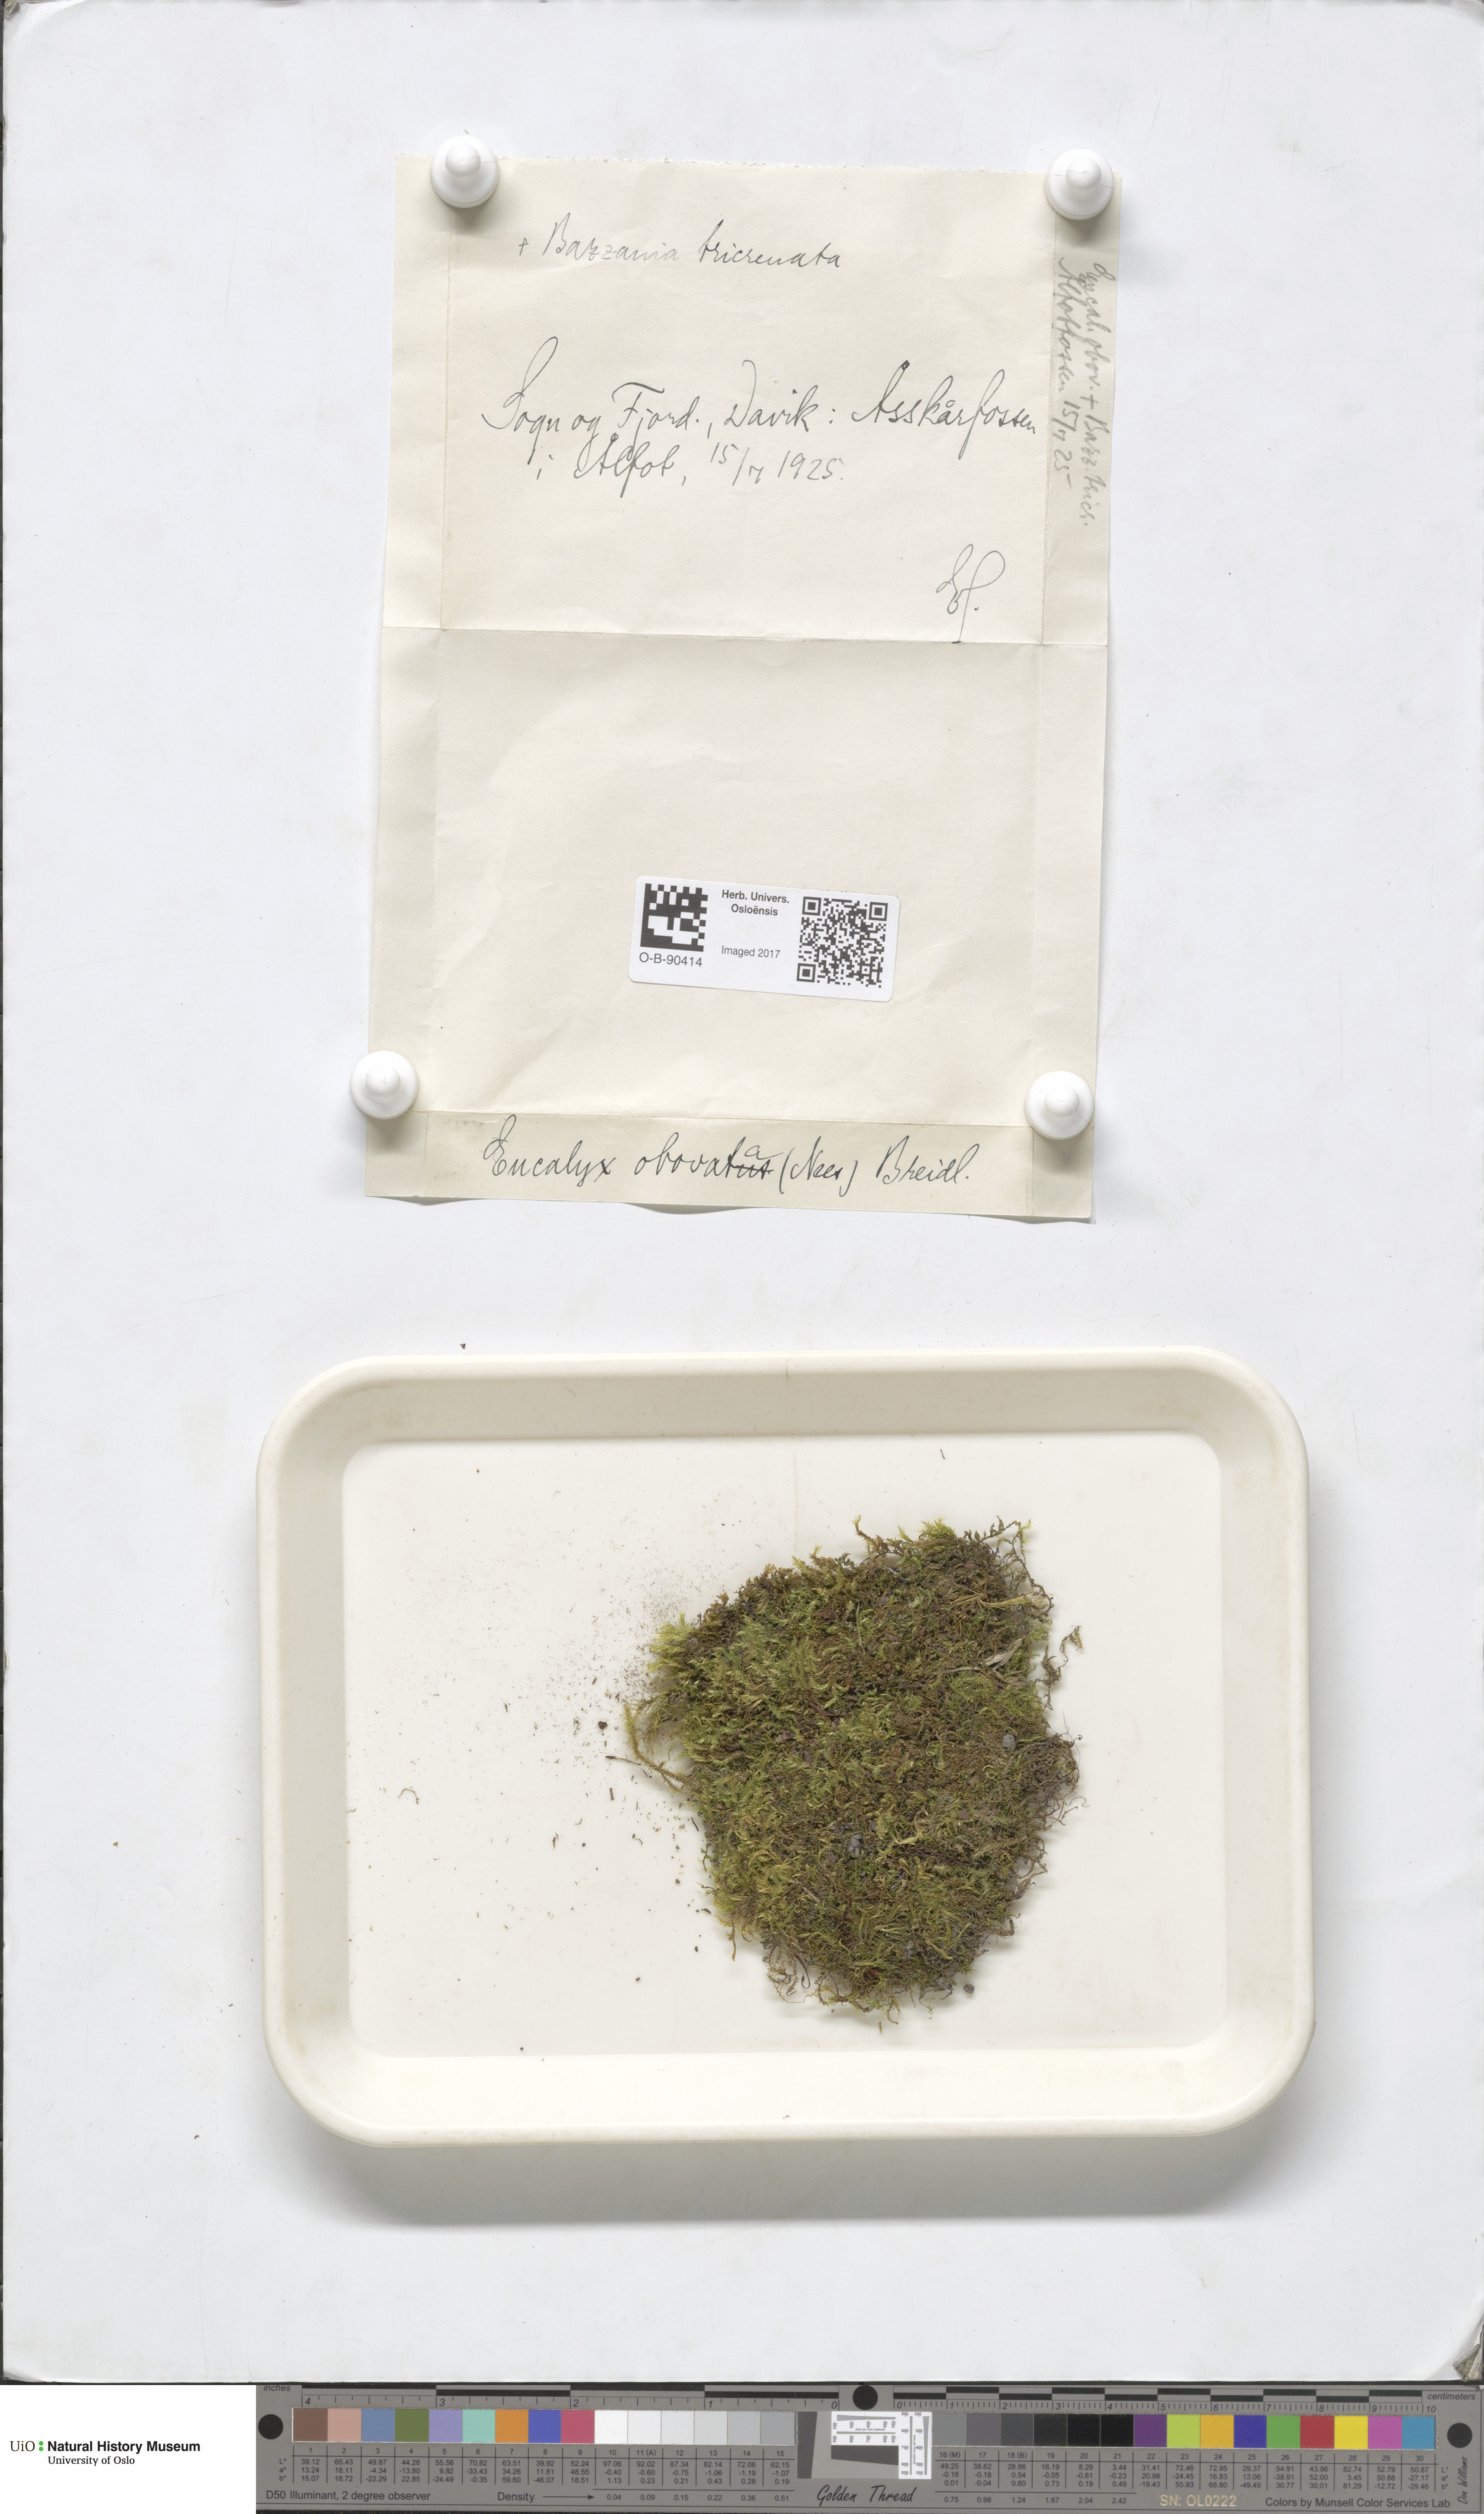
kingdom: Plantae
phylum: Marchantiophyta
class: Jungermanniopsida
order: Jungermanniales
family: Solenostomataceae
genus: Solenostoma
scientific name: Solenostoma obovatum
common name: Egg flapwort
